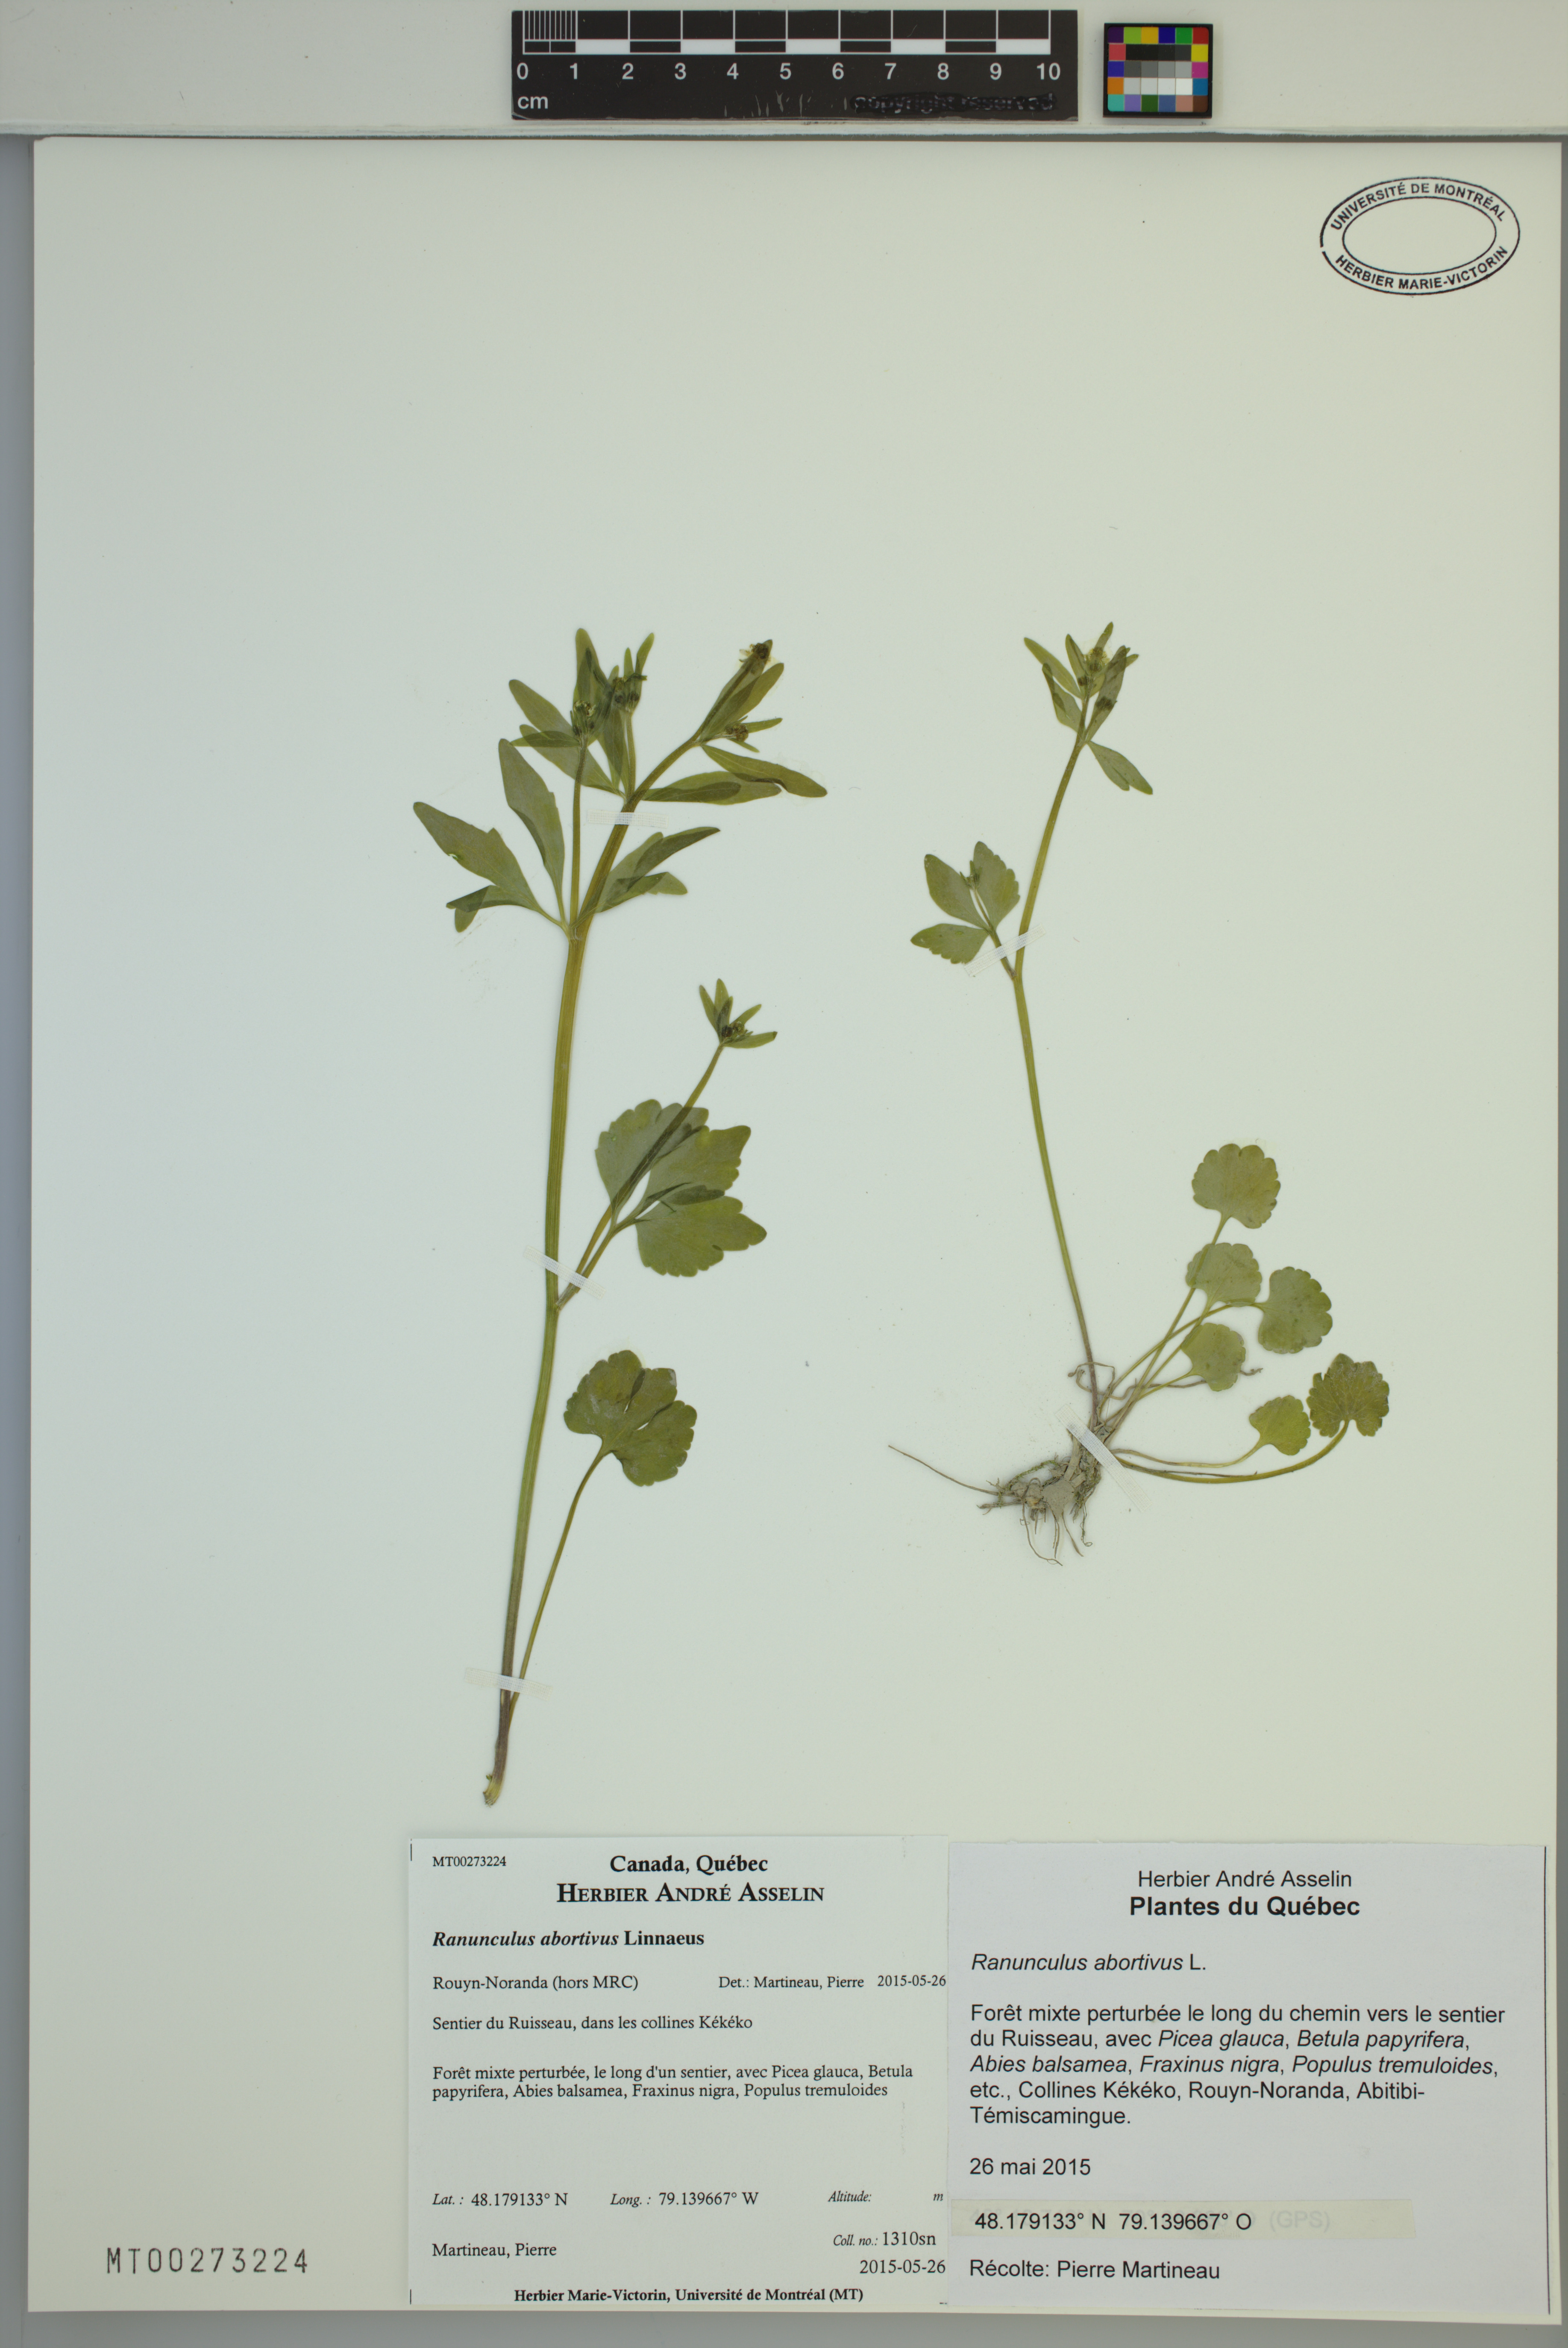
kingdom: Plantae
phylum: Tracheophyta
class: Magnoliopsida
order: Ranunculales
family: Ranunculaceae
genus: Ranunculus
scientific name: Ranunculus abortivus
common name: Early wood buttercup
